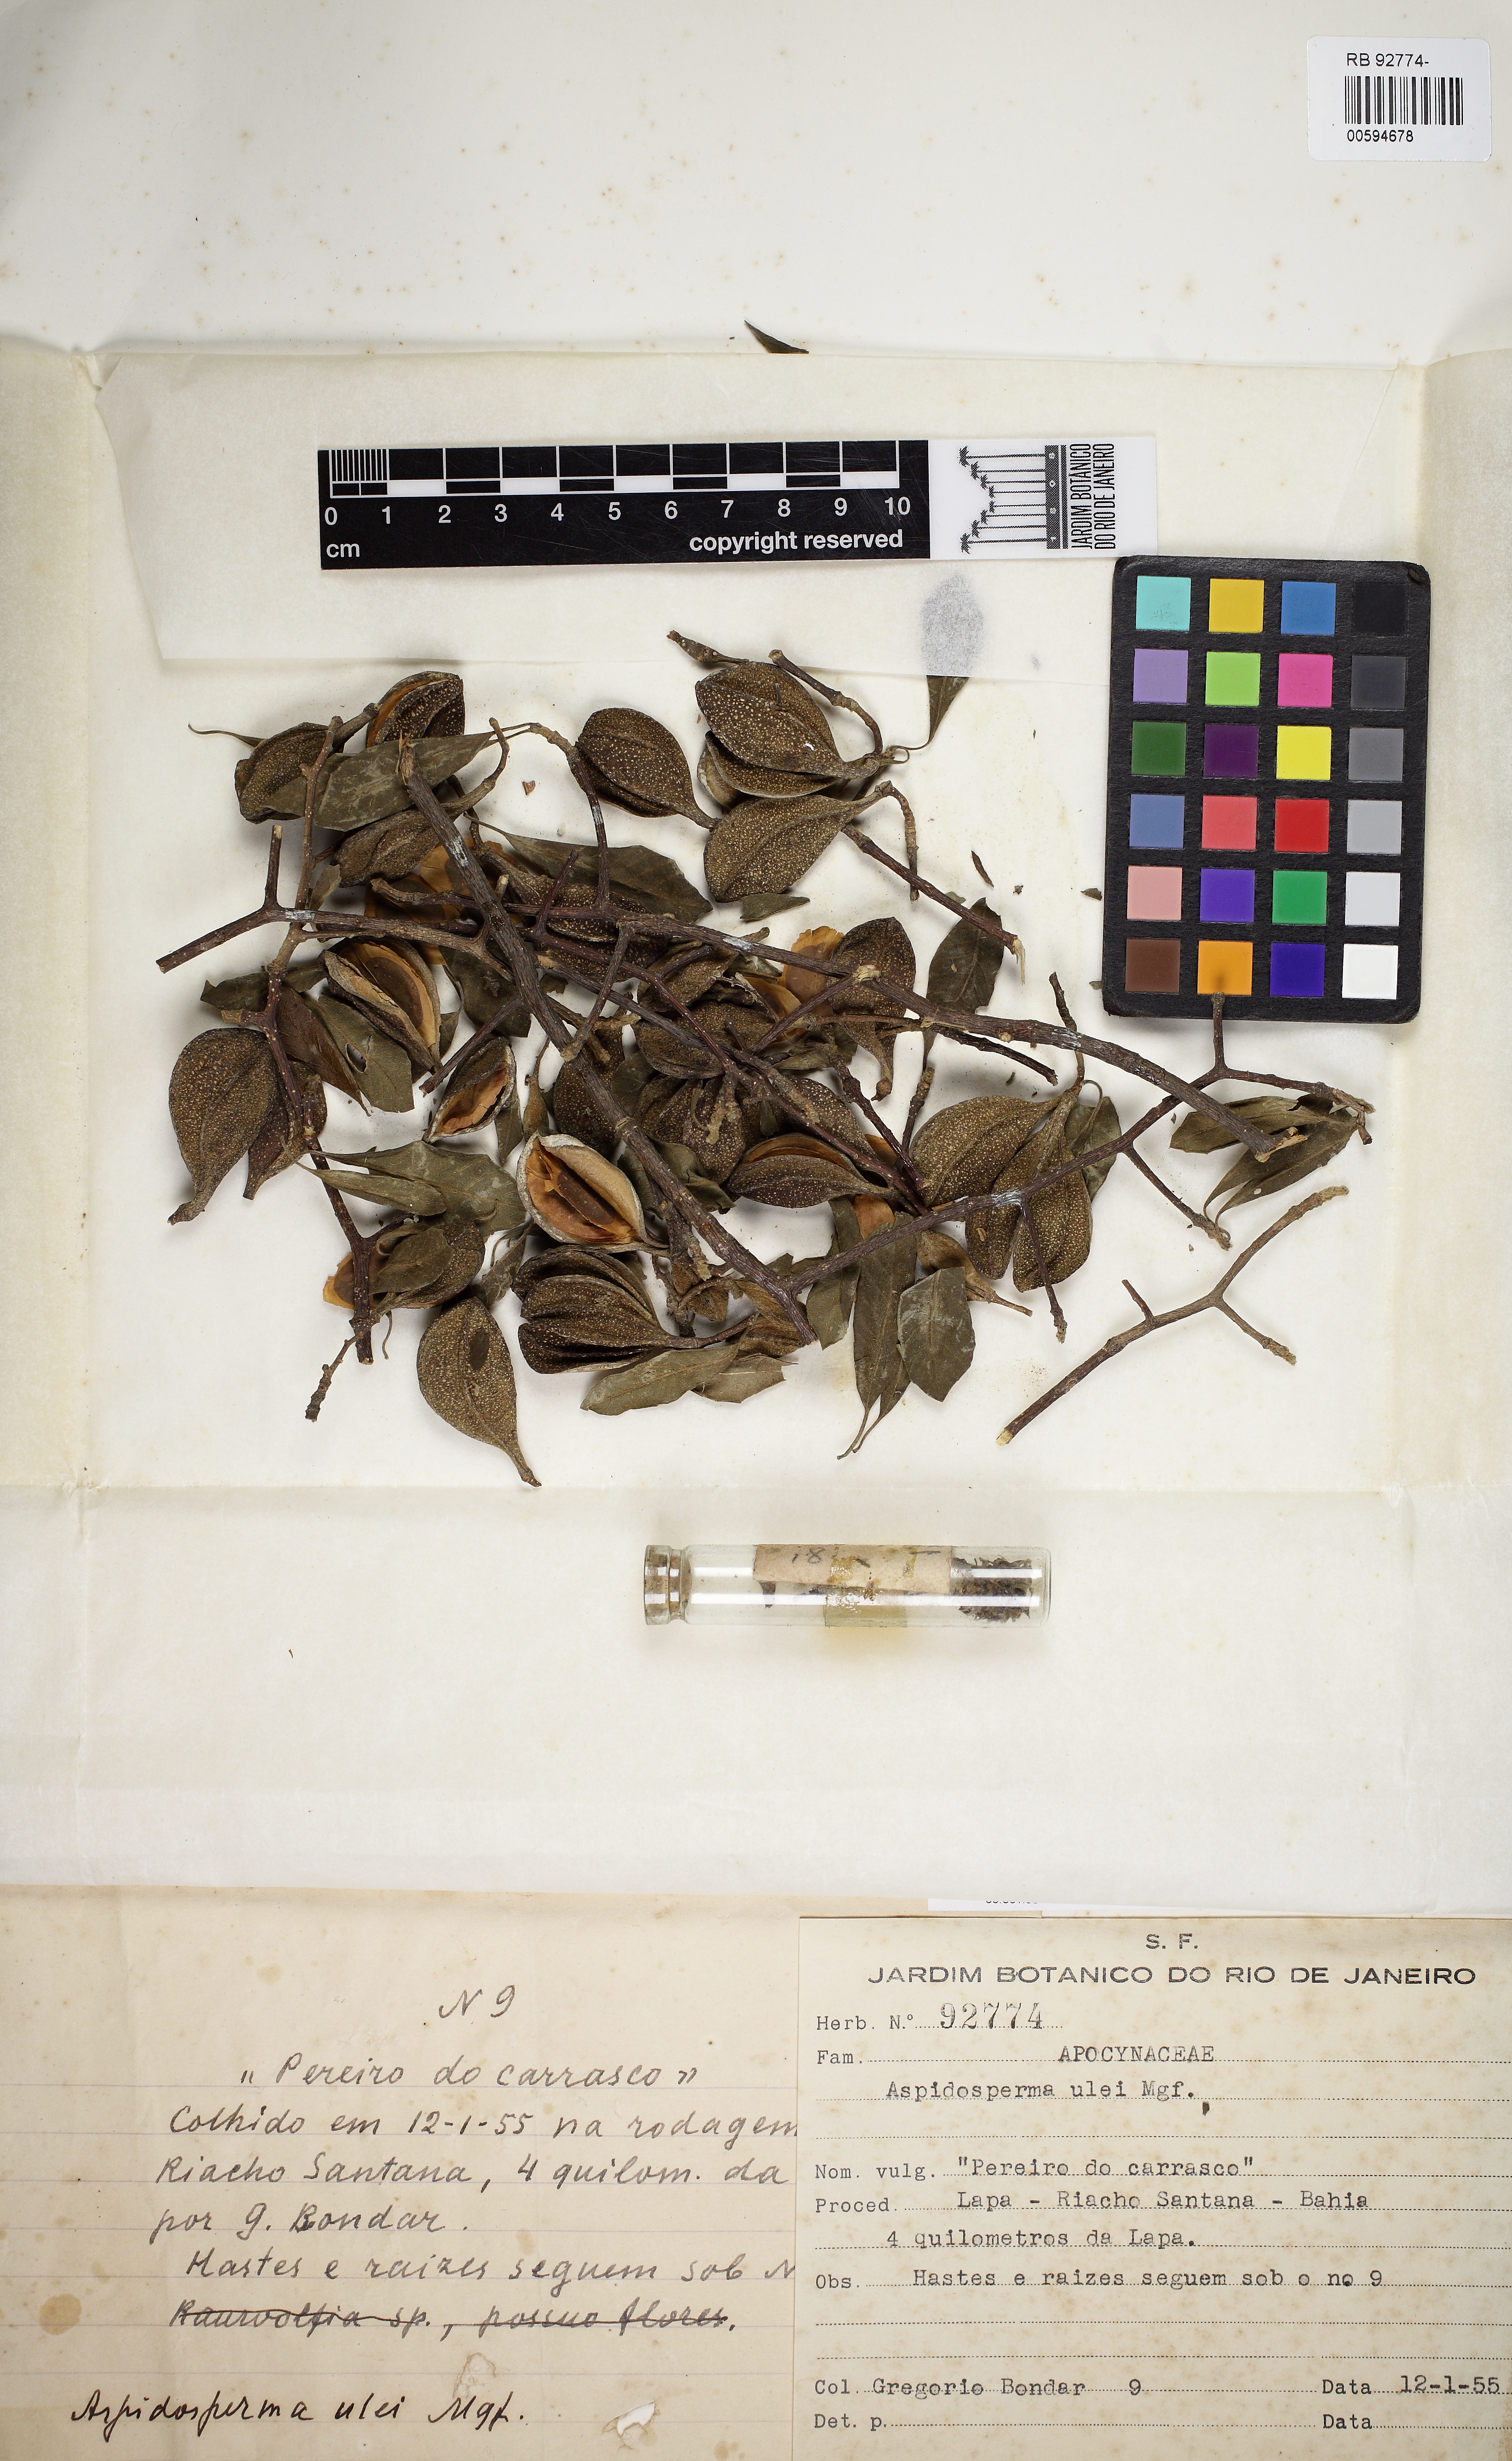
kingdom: Plantae
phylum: Tracheophyta
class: Magnoliopsida
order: Gentianales
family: Apocynaceae
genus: Aspidosperma
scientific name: Aspidosperma pyrifolium
